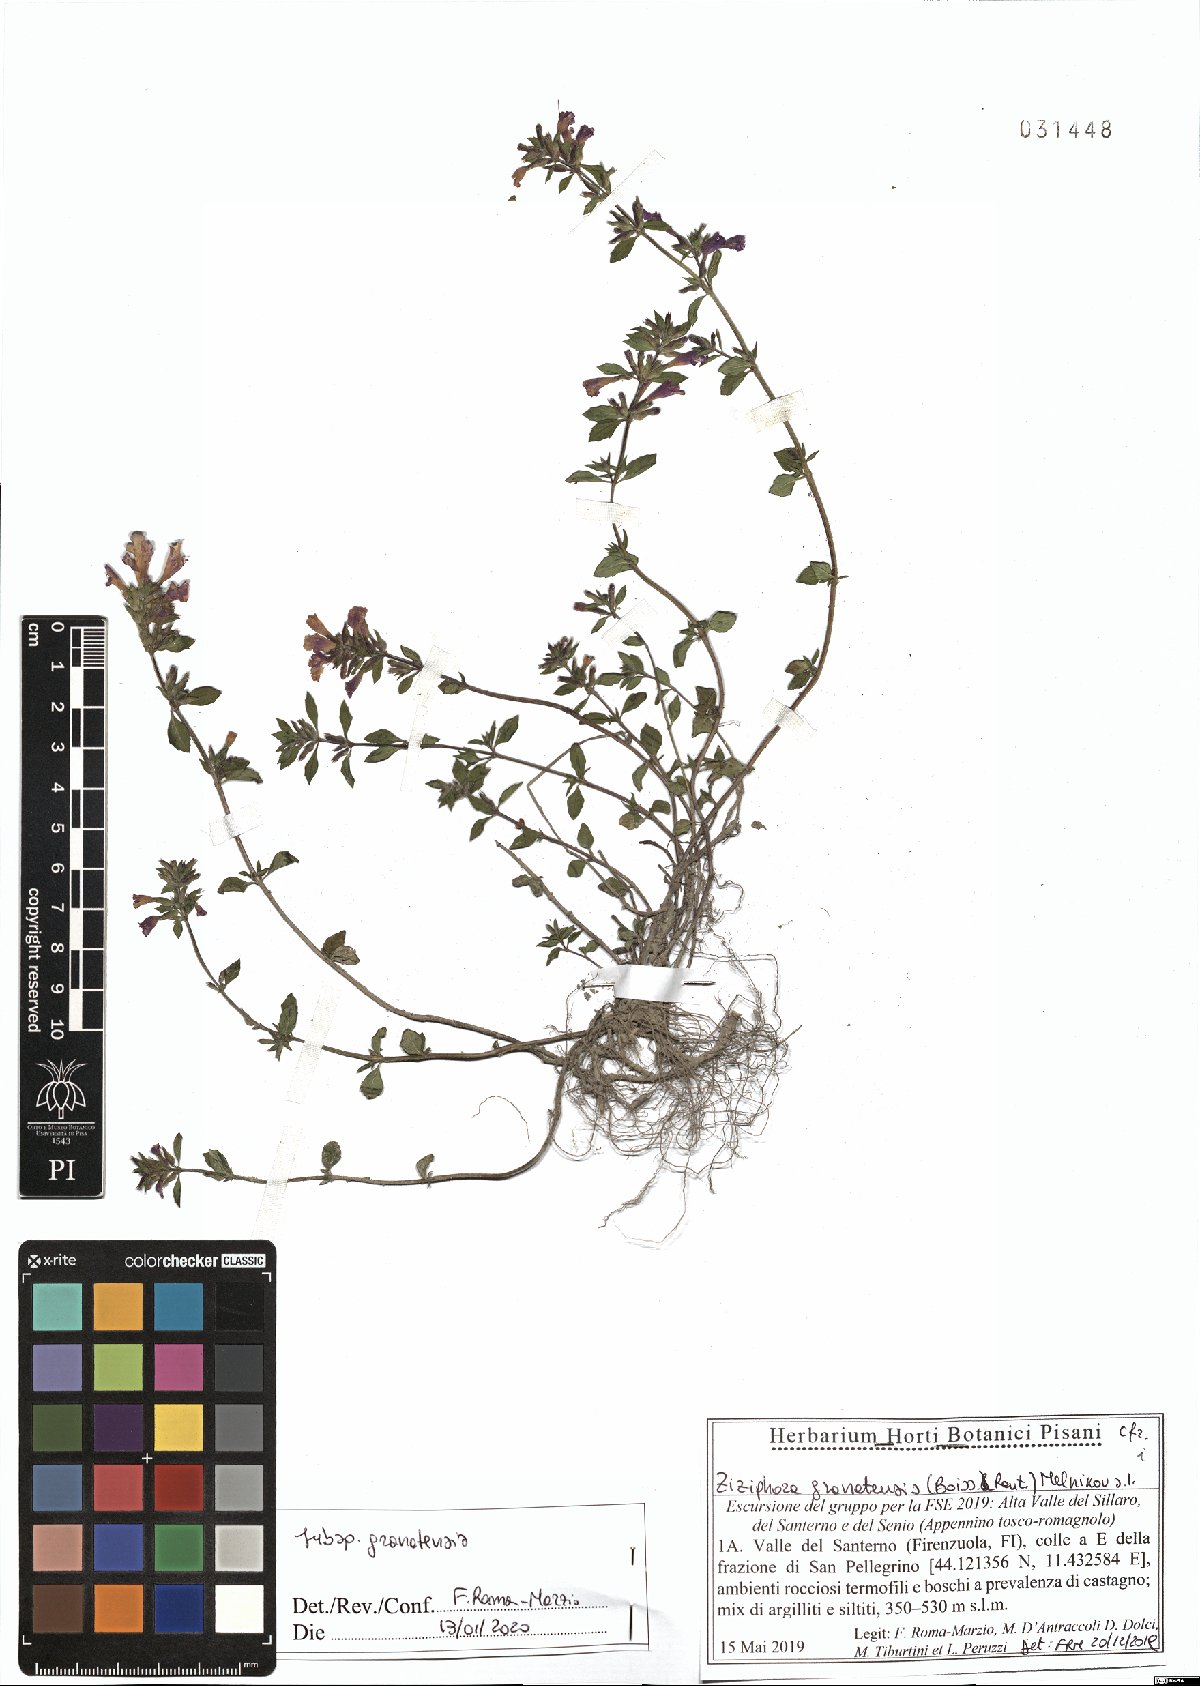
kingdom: Plantae
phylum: Tracheophyta
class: Magnoliopsida
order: Lamiales
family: Lamiaceae
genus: Clinopodium
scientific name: Clinopodium alpinum
